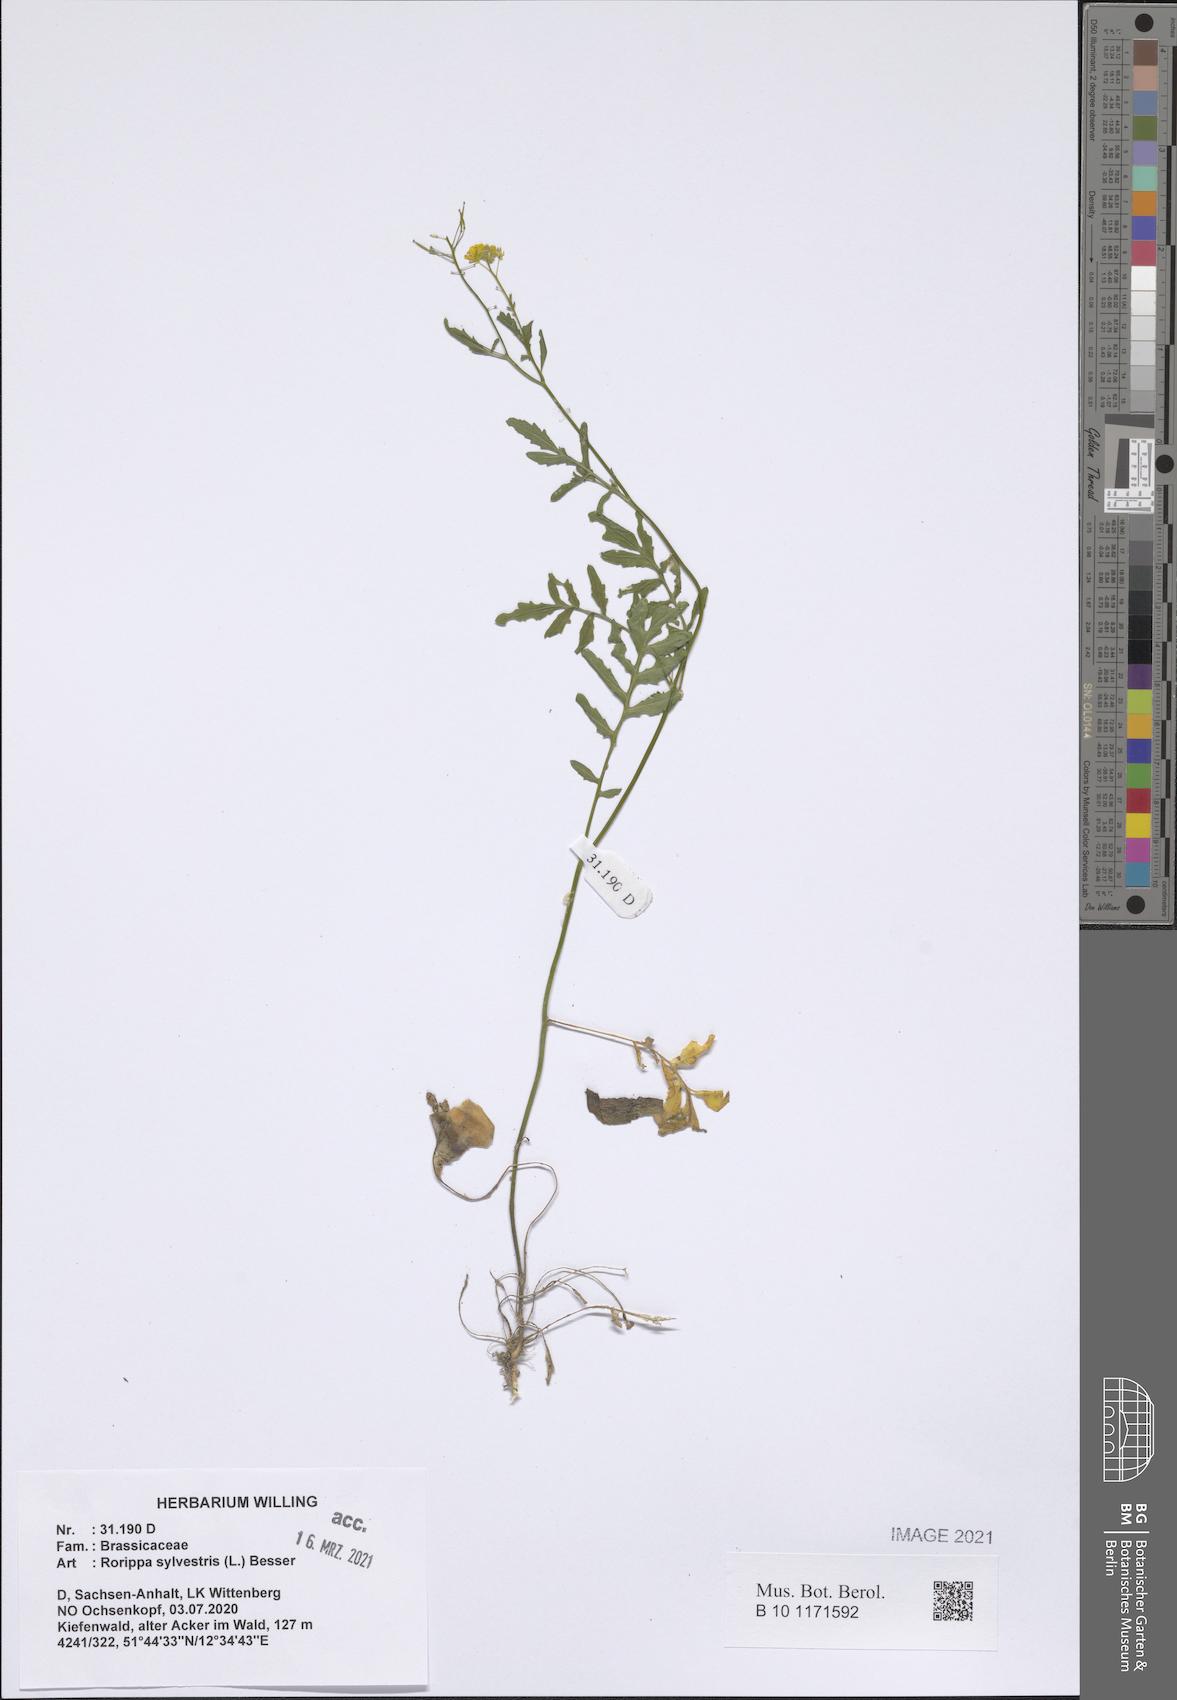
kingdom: Plantae
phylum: Tracheophyta
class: Magnoliopsida
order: Brassicales
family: Brassicaceae
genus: Rorippa
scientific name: Rorippa sylvestris
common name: Creeping yellowcress
